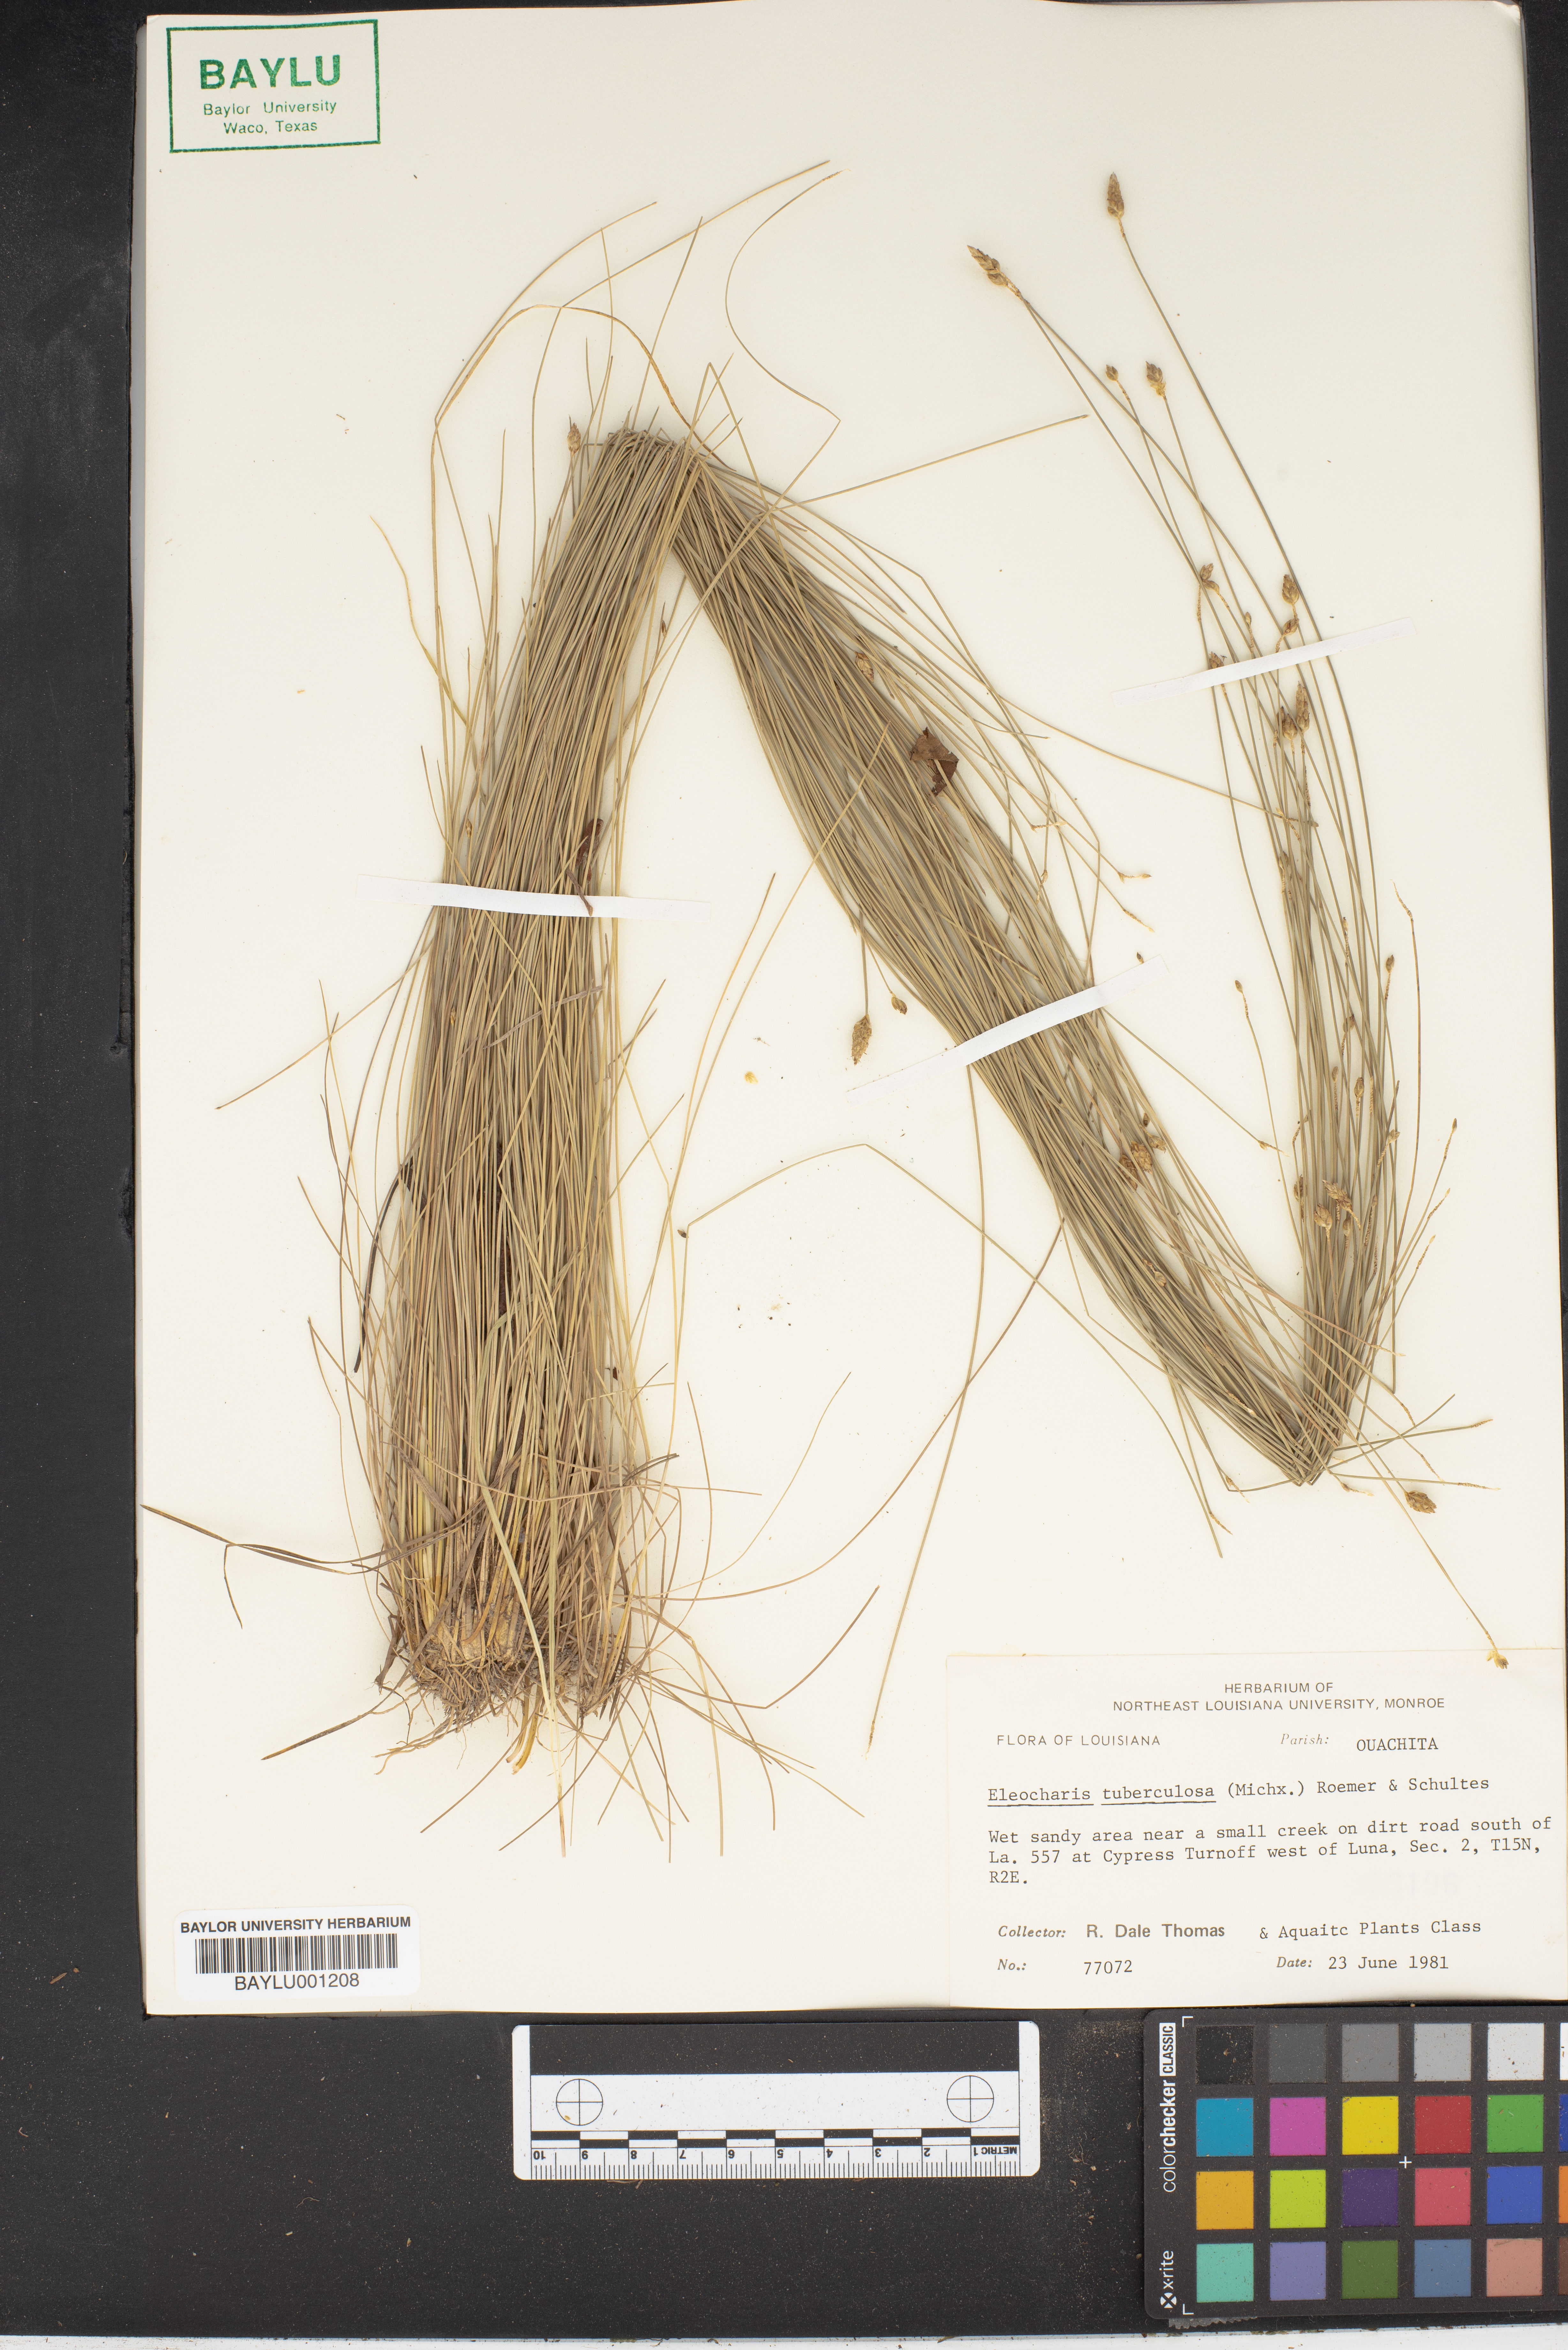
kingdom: Plantae
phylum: Tracheophyta
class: Liliopsida
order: Poales
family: Cyperaceae
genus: Eleocharis
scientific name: Eleocharis tuberculosa
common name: Cone-cup spikerush
